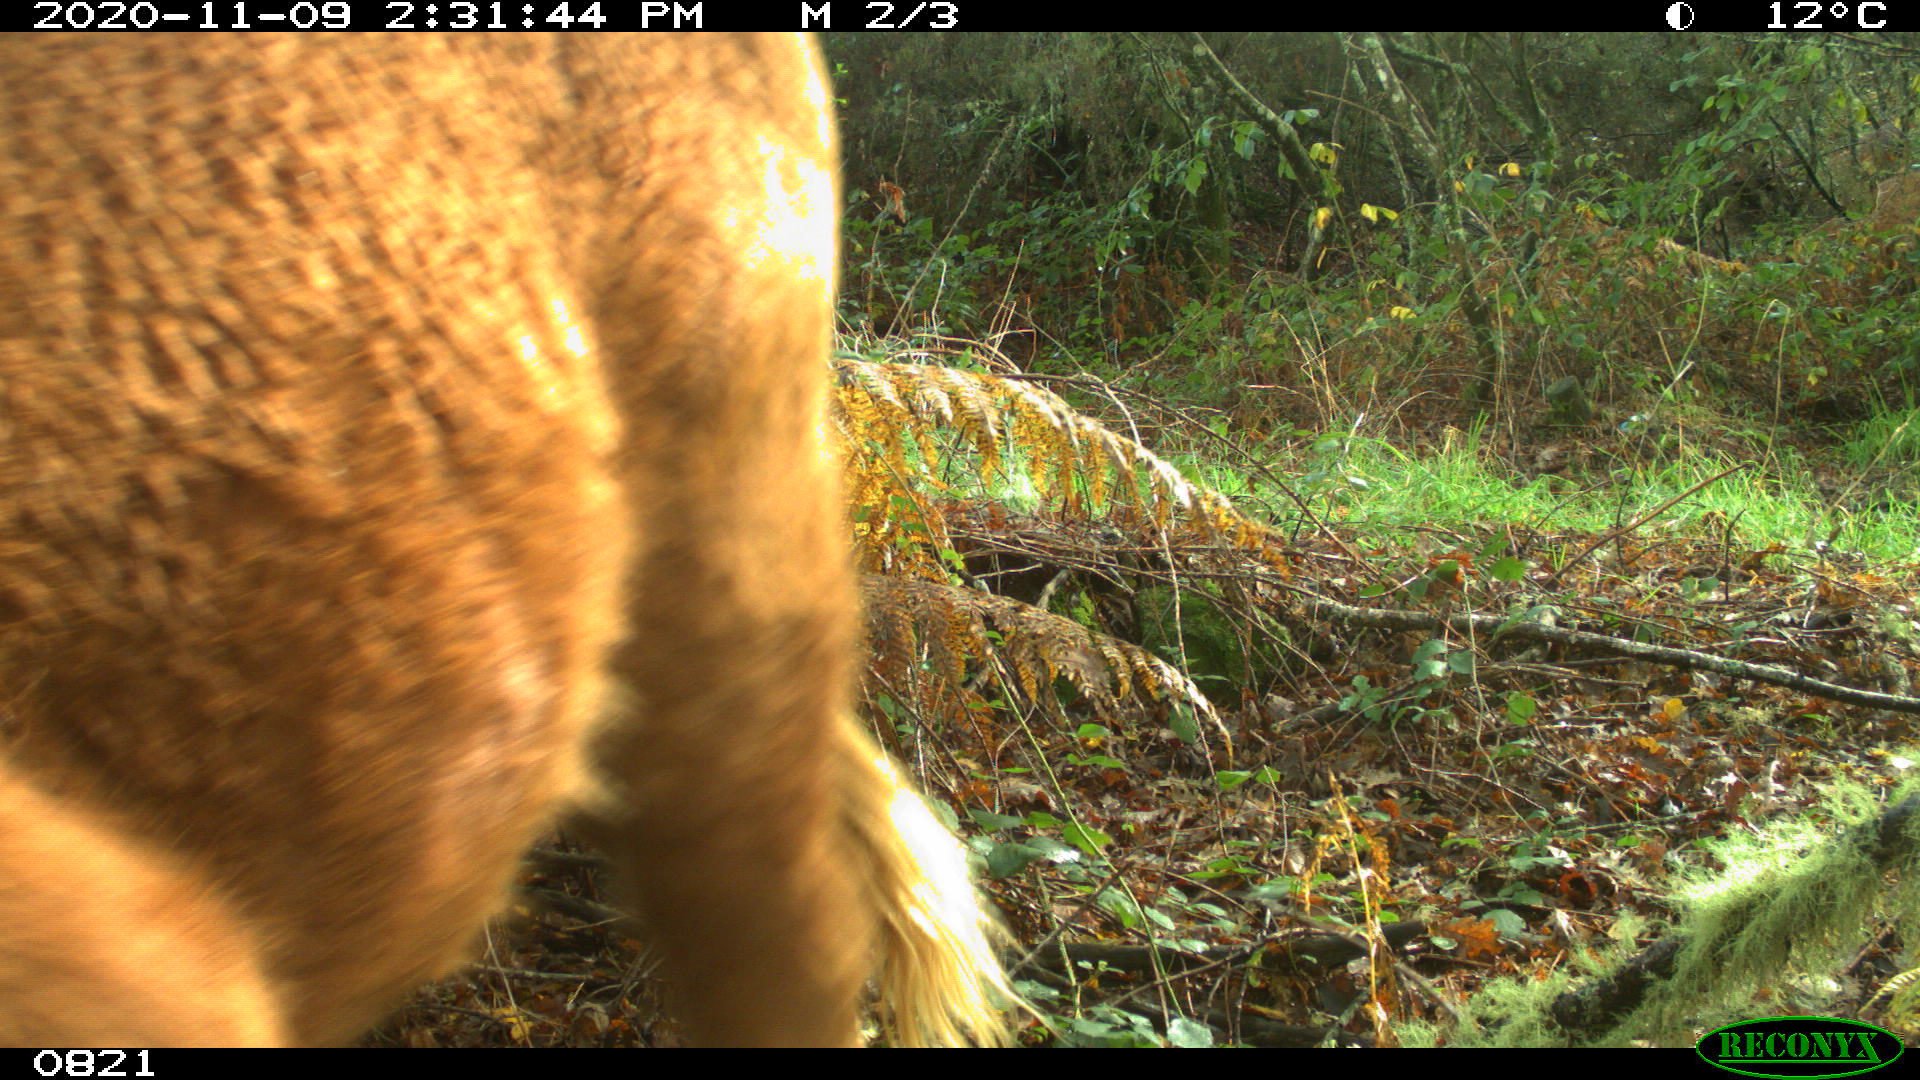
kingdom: Animalia
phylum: Chordata
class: Mammalia
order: Artiodactyla
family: Bovidae
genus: Bos
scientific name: Bos taurus
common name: Domesticated cattle
